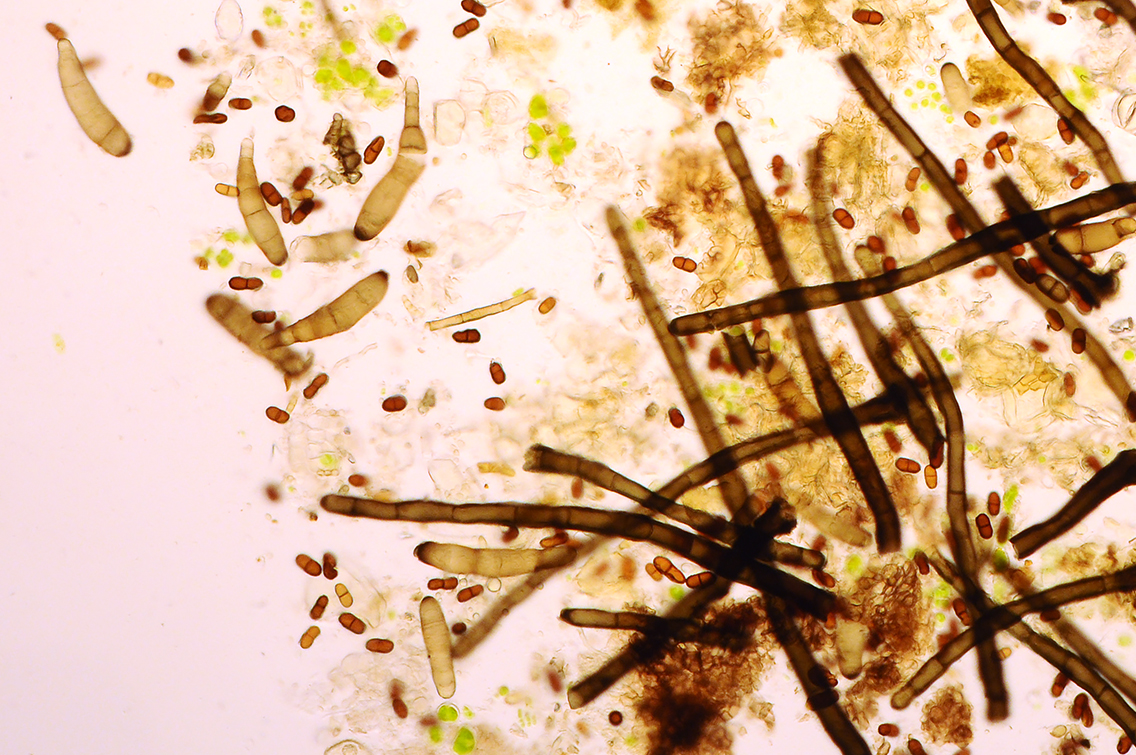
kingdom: Fungi
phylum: Ascomycota
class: Dothideomycetes
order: Pleosporales
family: Massarinaceae
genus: Helminthosporium
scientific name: Helminthosporium
